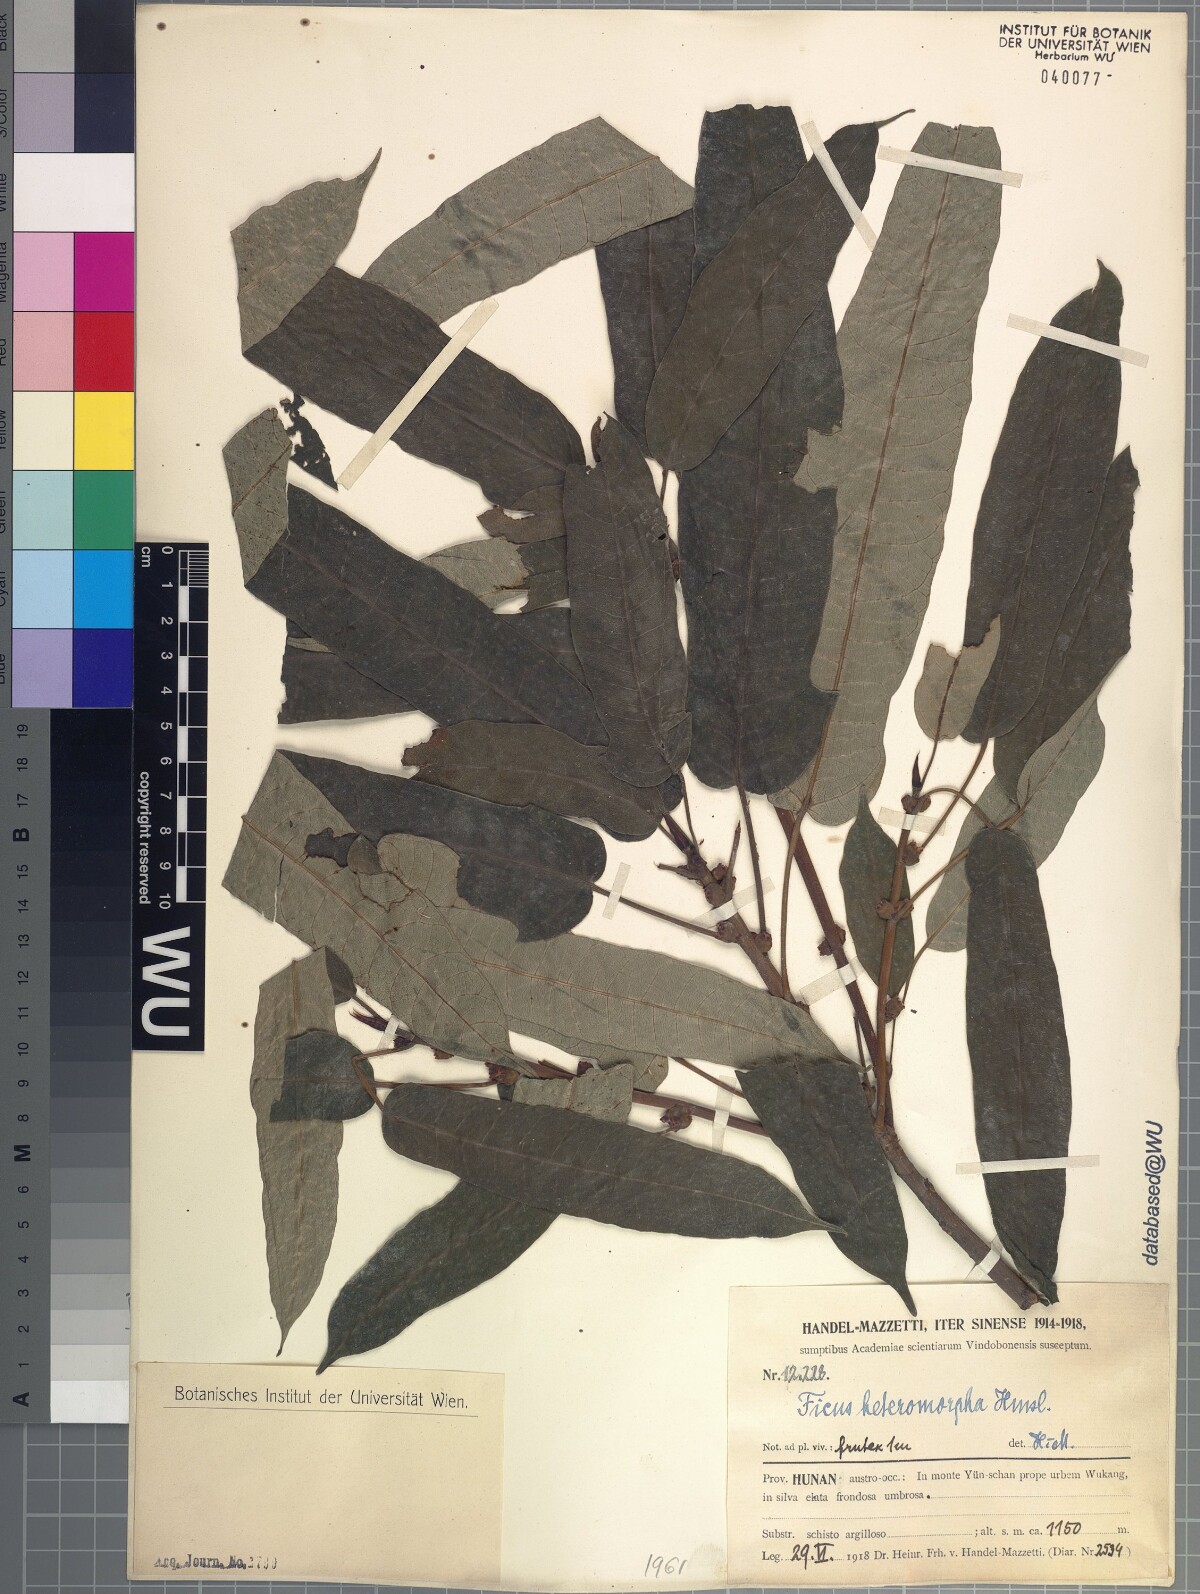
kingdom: Plantae
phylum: Tracheophyta
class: Magnoliopsida
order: Rosales
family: Moraceae
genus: Ficus
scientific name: Ficus heteromorpha
